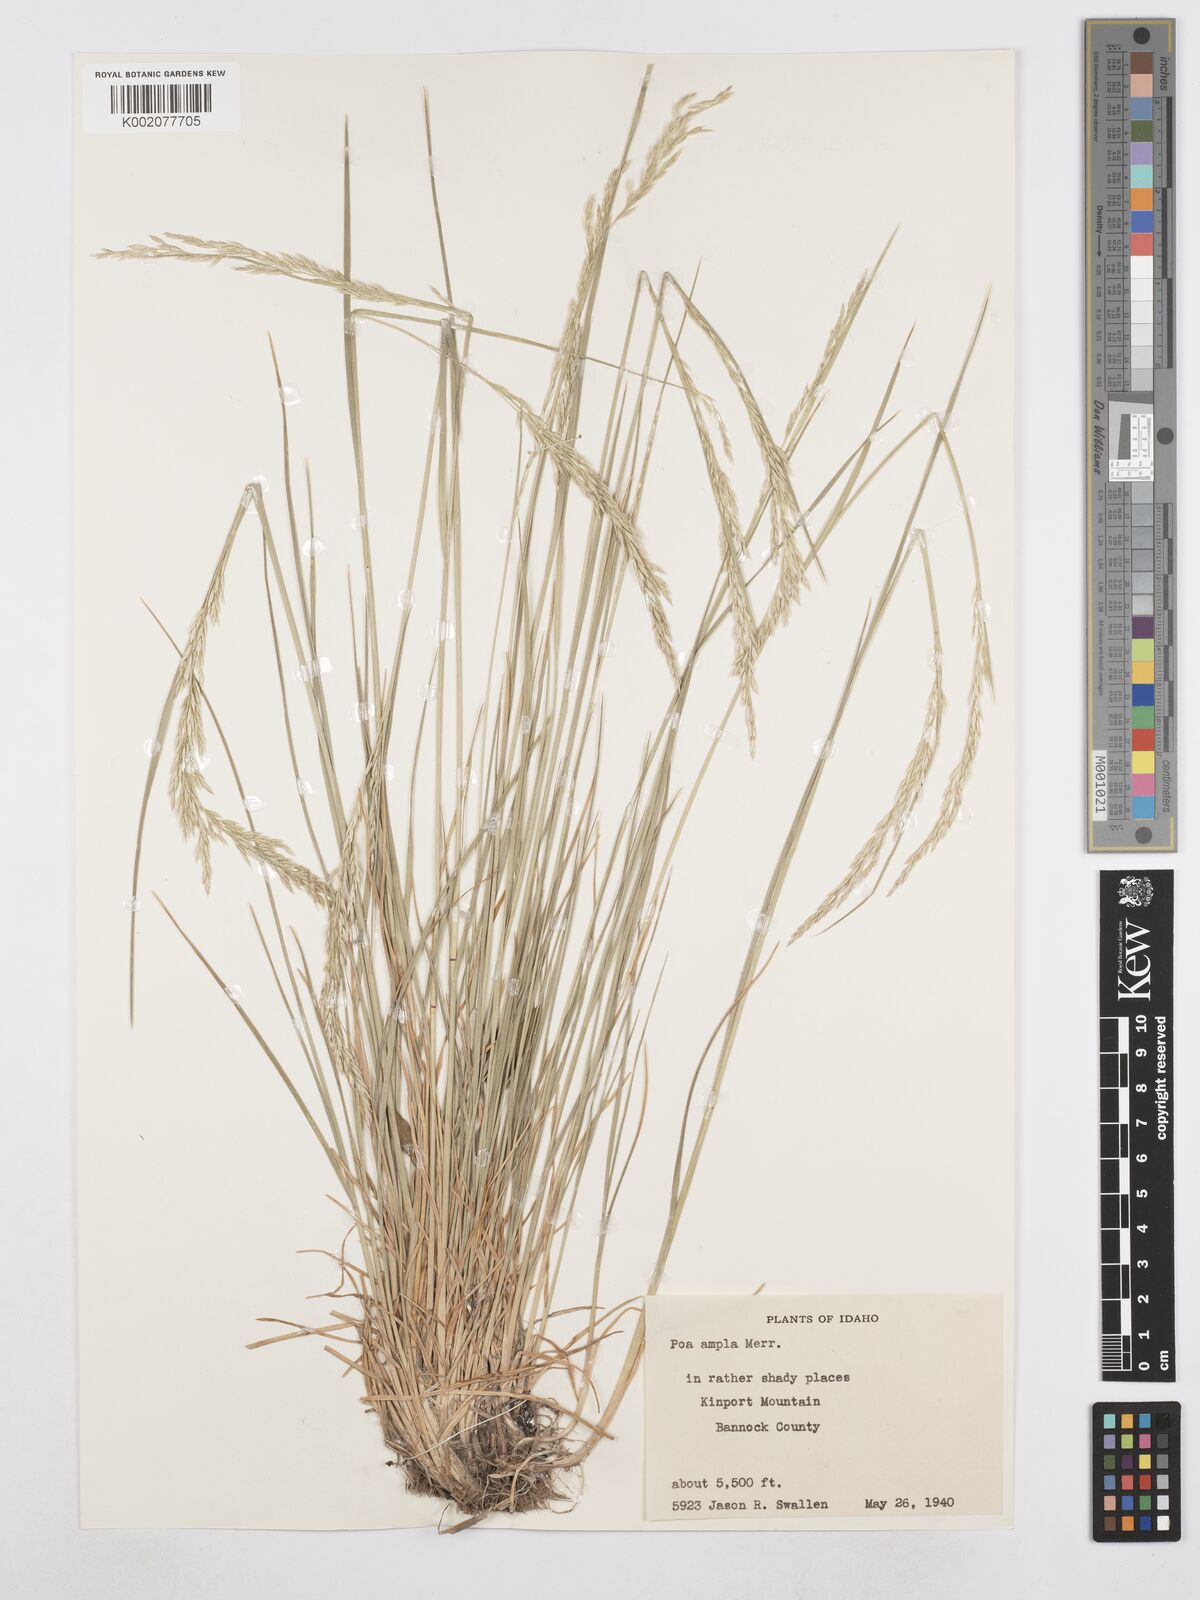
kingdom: Plantae
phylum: Tracheophyta
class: Liliopsida
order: Poales
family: Poaceae
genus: Poa
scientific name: Poa secunda
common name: Sandberg bluegrass
